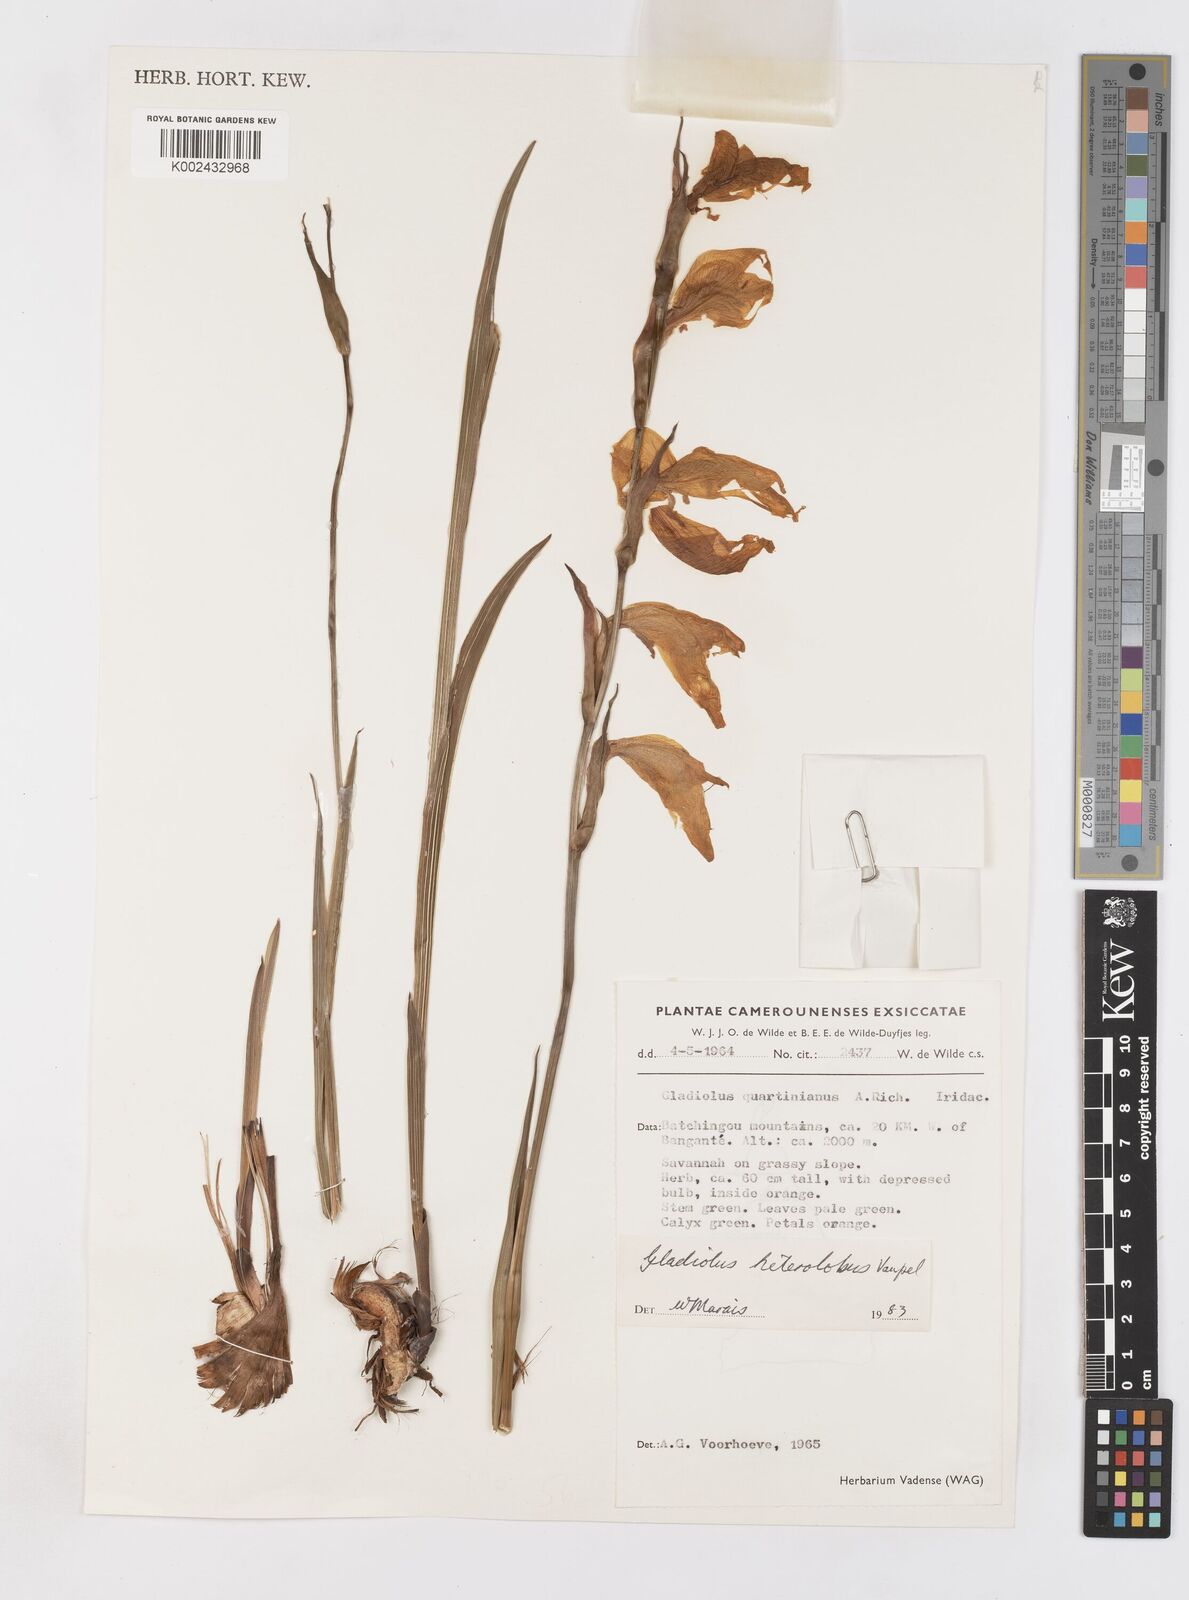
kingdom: Plantae
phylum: Tracheophyta
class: Liliopsida
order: Asparagales
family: Iridaceae
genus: Gladiolus
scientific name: Gladiolus roseolus
